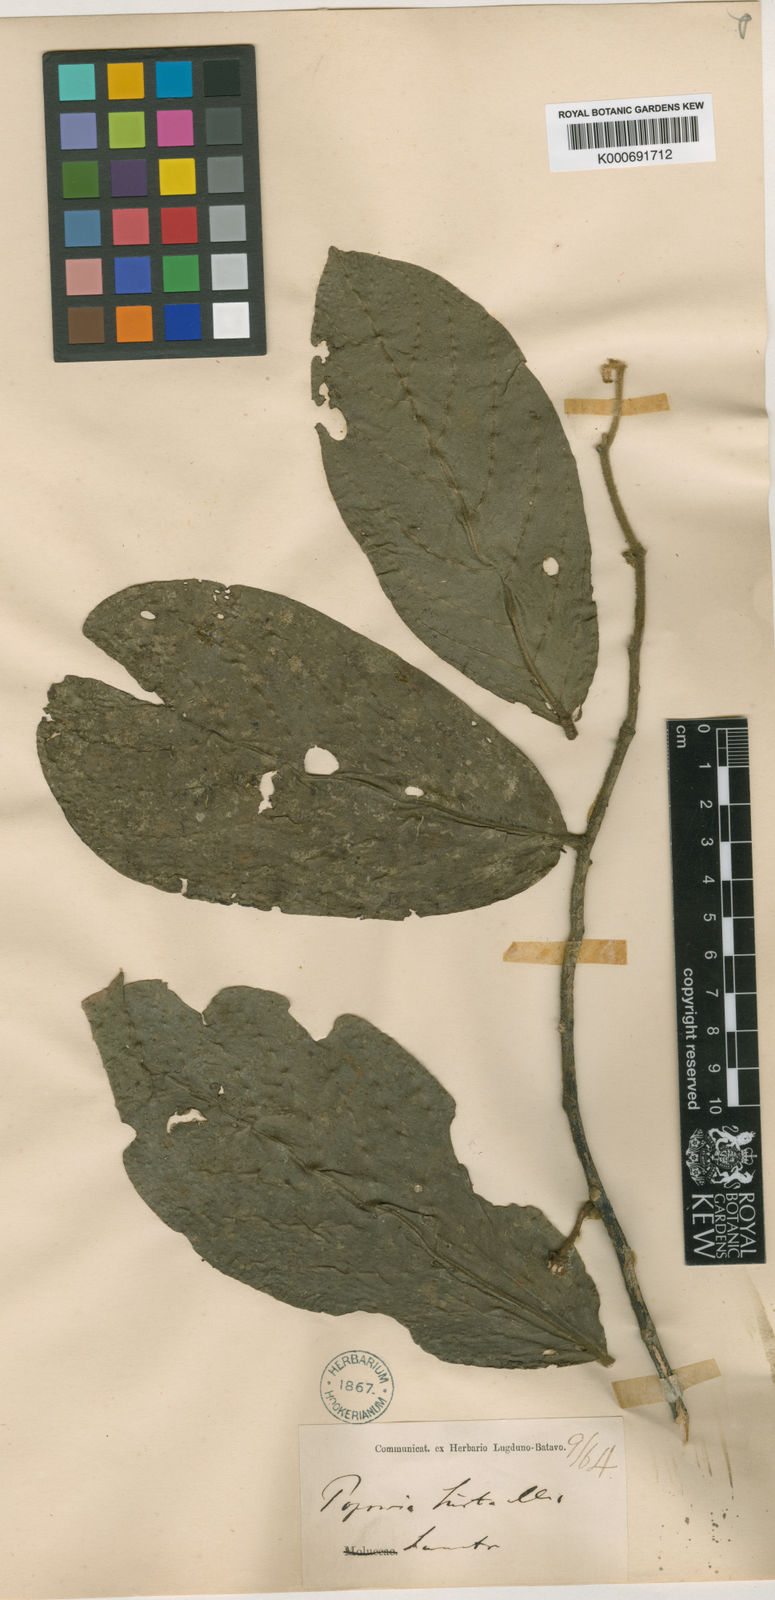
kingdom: Plantae
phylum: Tracheophyta
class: Magnoliopsida
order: Magnoliales
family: Annonaceae
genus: Popowia
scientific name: Popowia hirta
